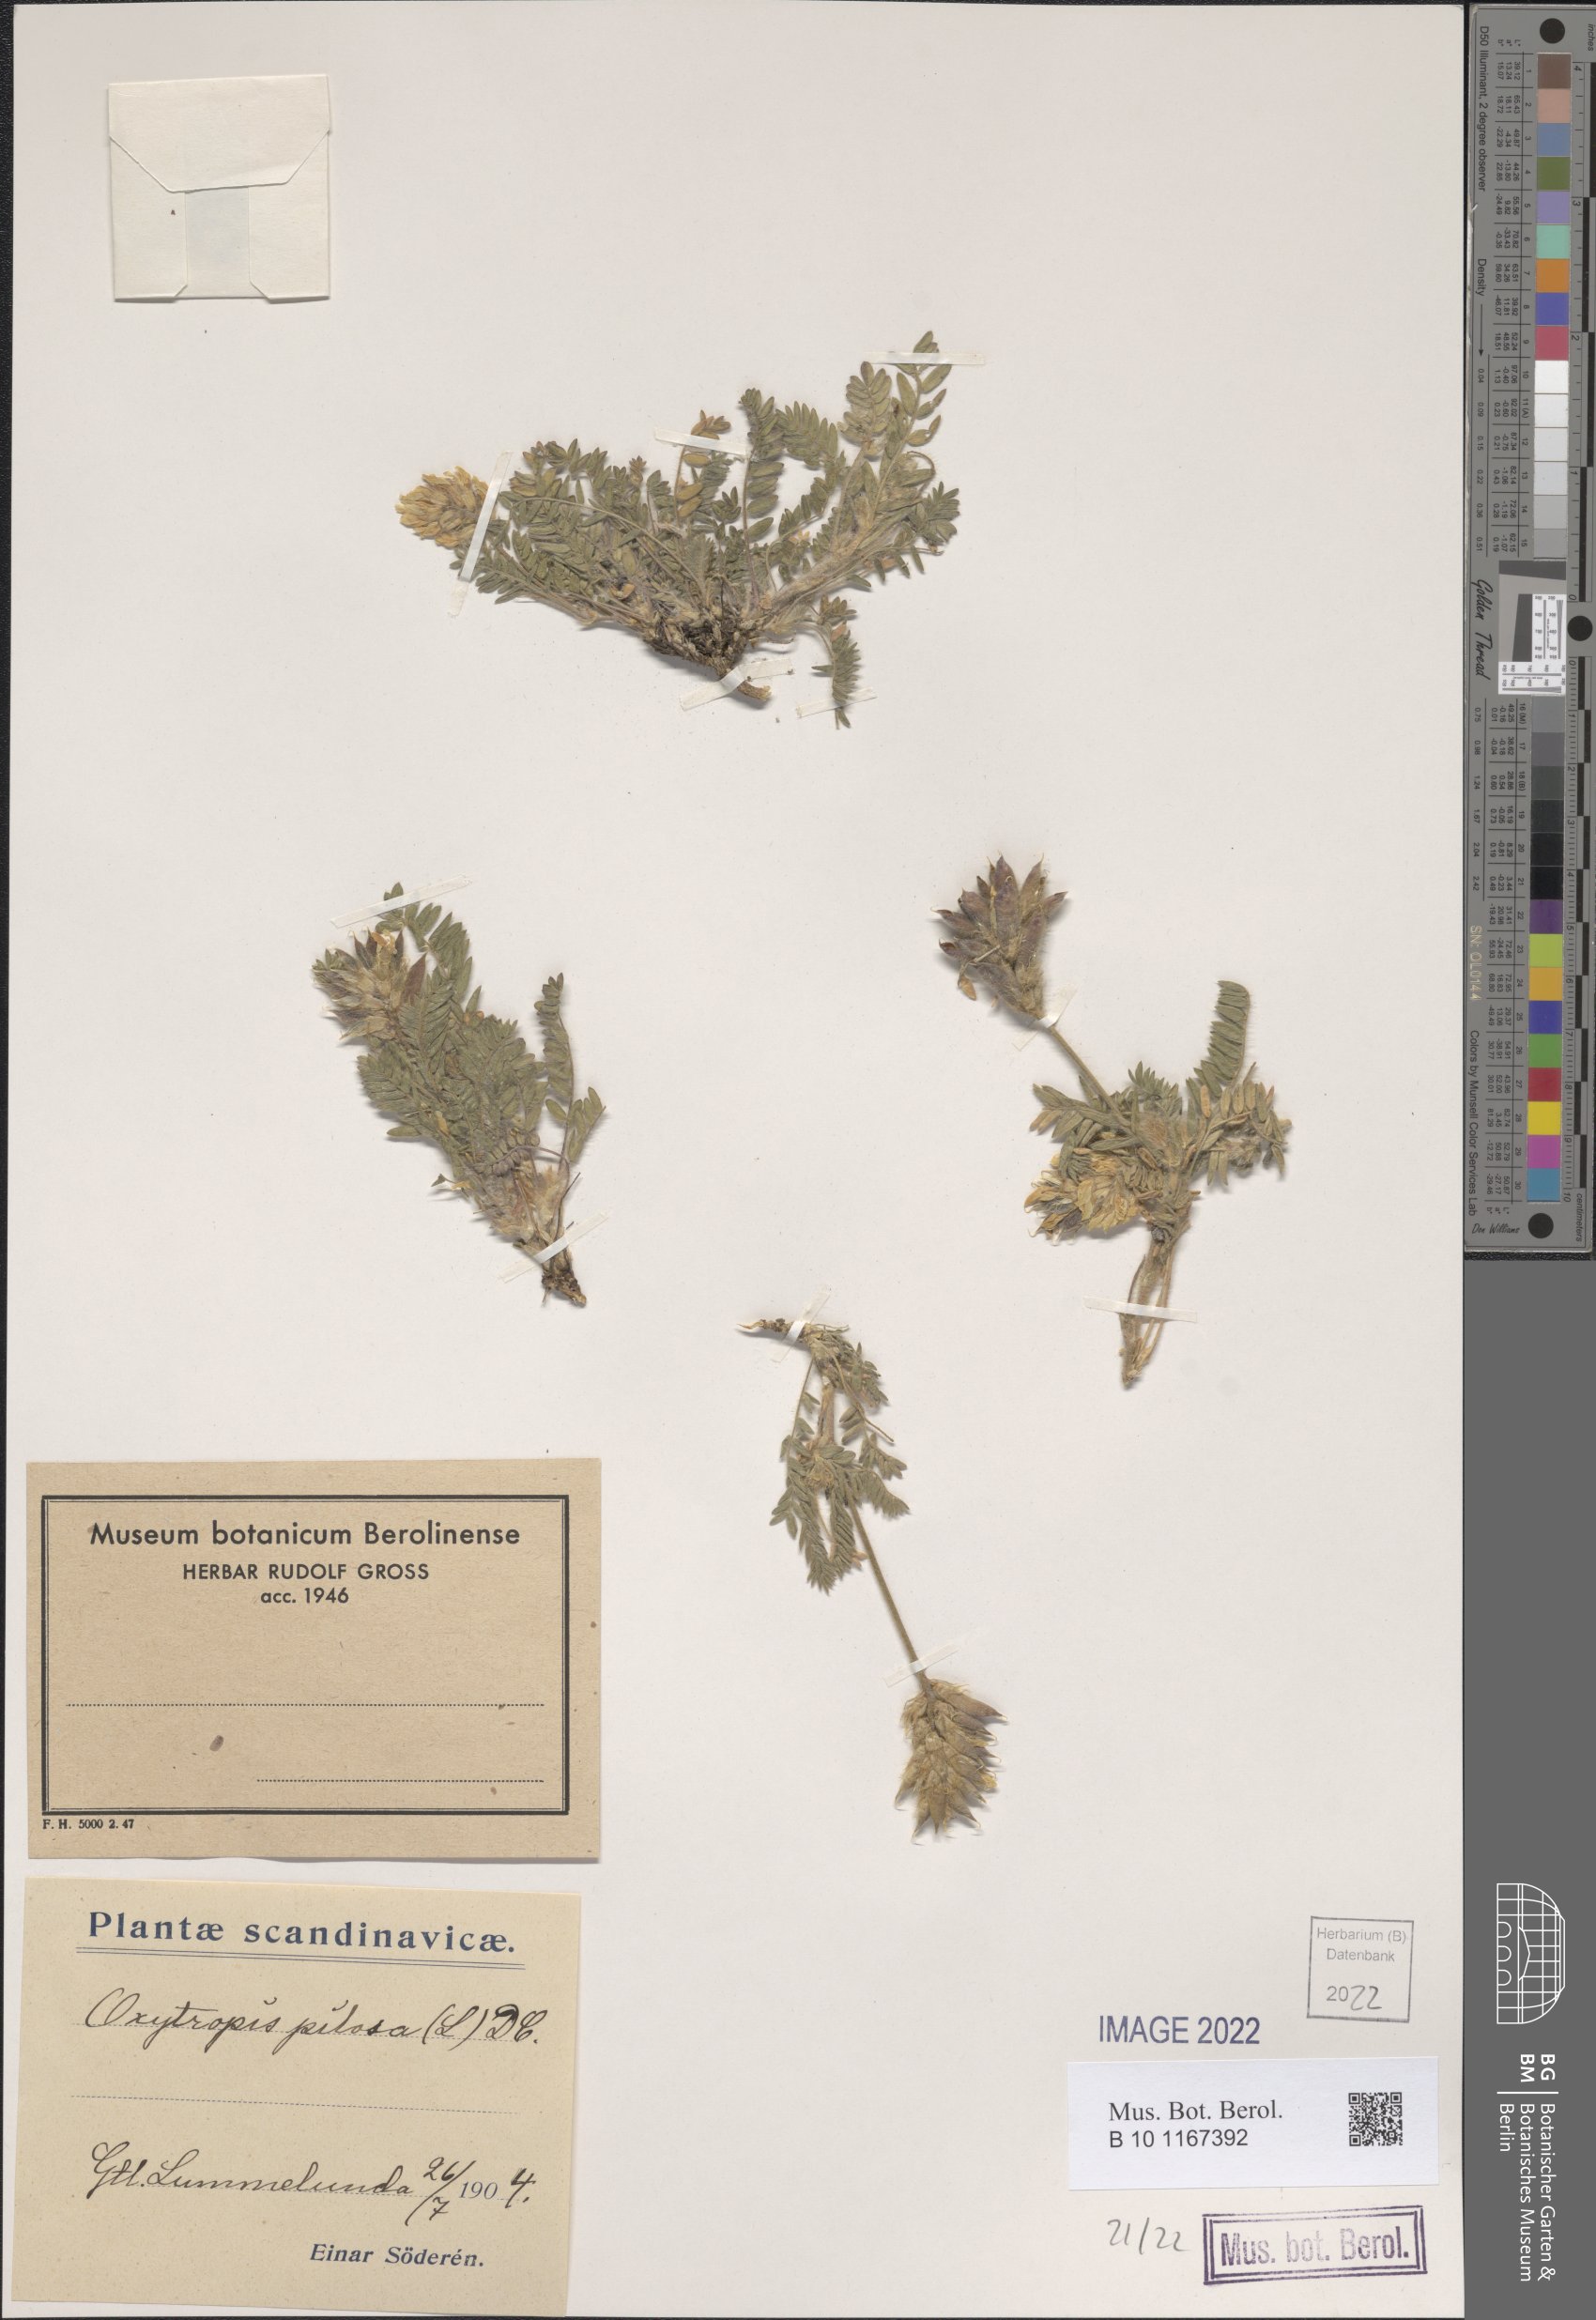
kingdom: Plantae
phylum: Tracheophyta
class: Magnoliopsida
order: Fabales
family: Fabaceae
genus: Oxytropis
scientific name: Oxytropis pilosa
